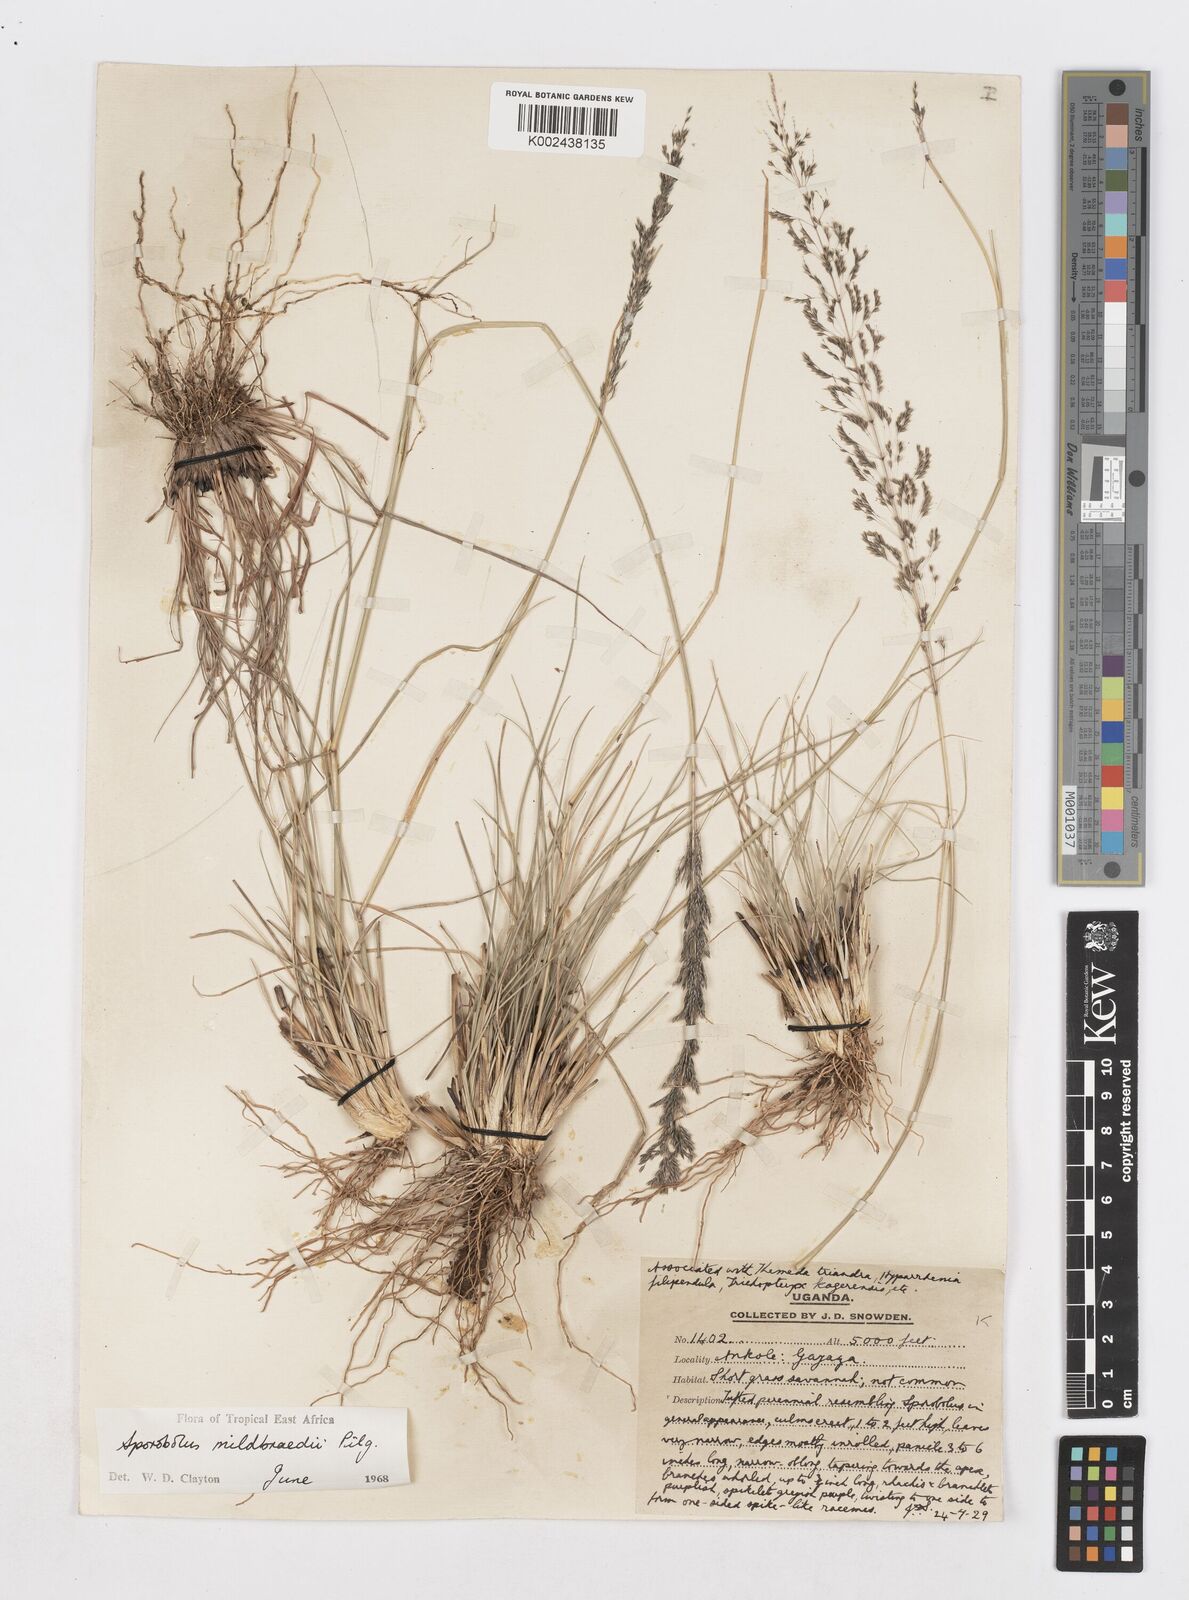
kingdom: Plantae
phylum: Tracheophyta
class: Liliopsida
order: Poales
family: Poaceae
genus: Sporobolus
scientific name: Sporobolus mildbraedii
